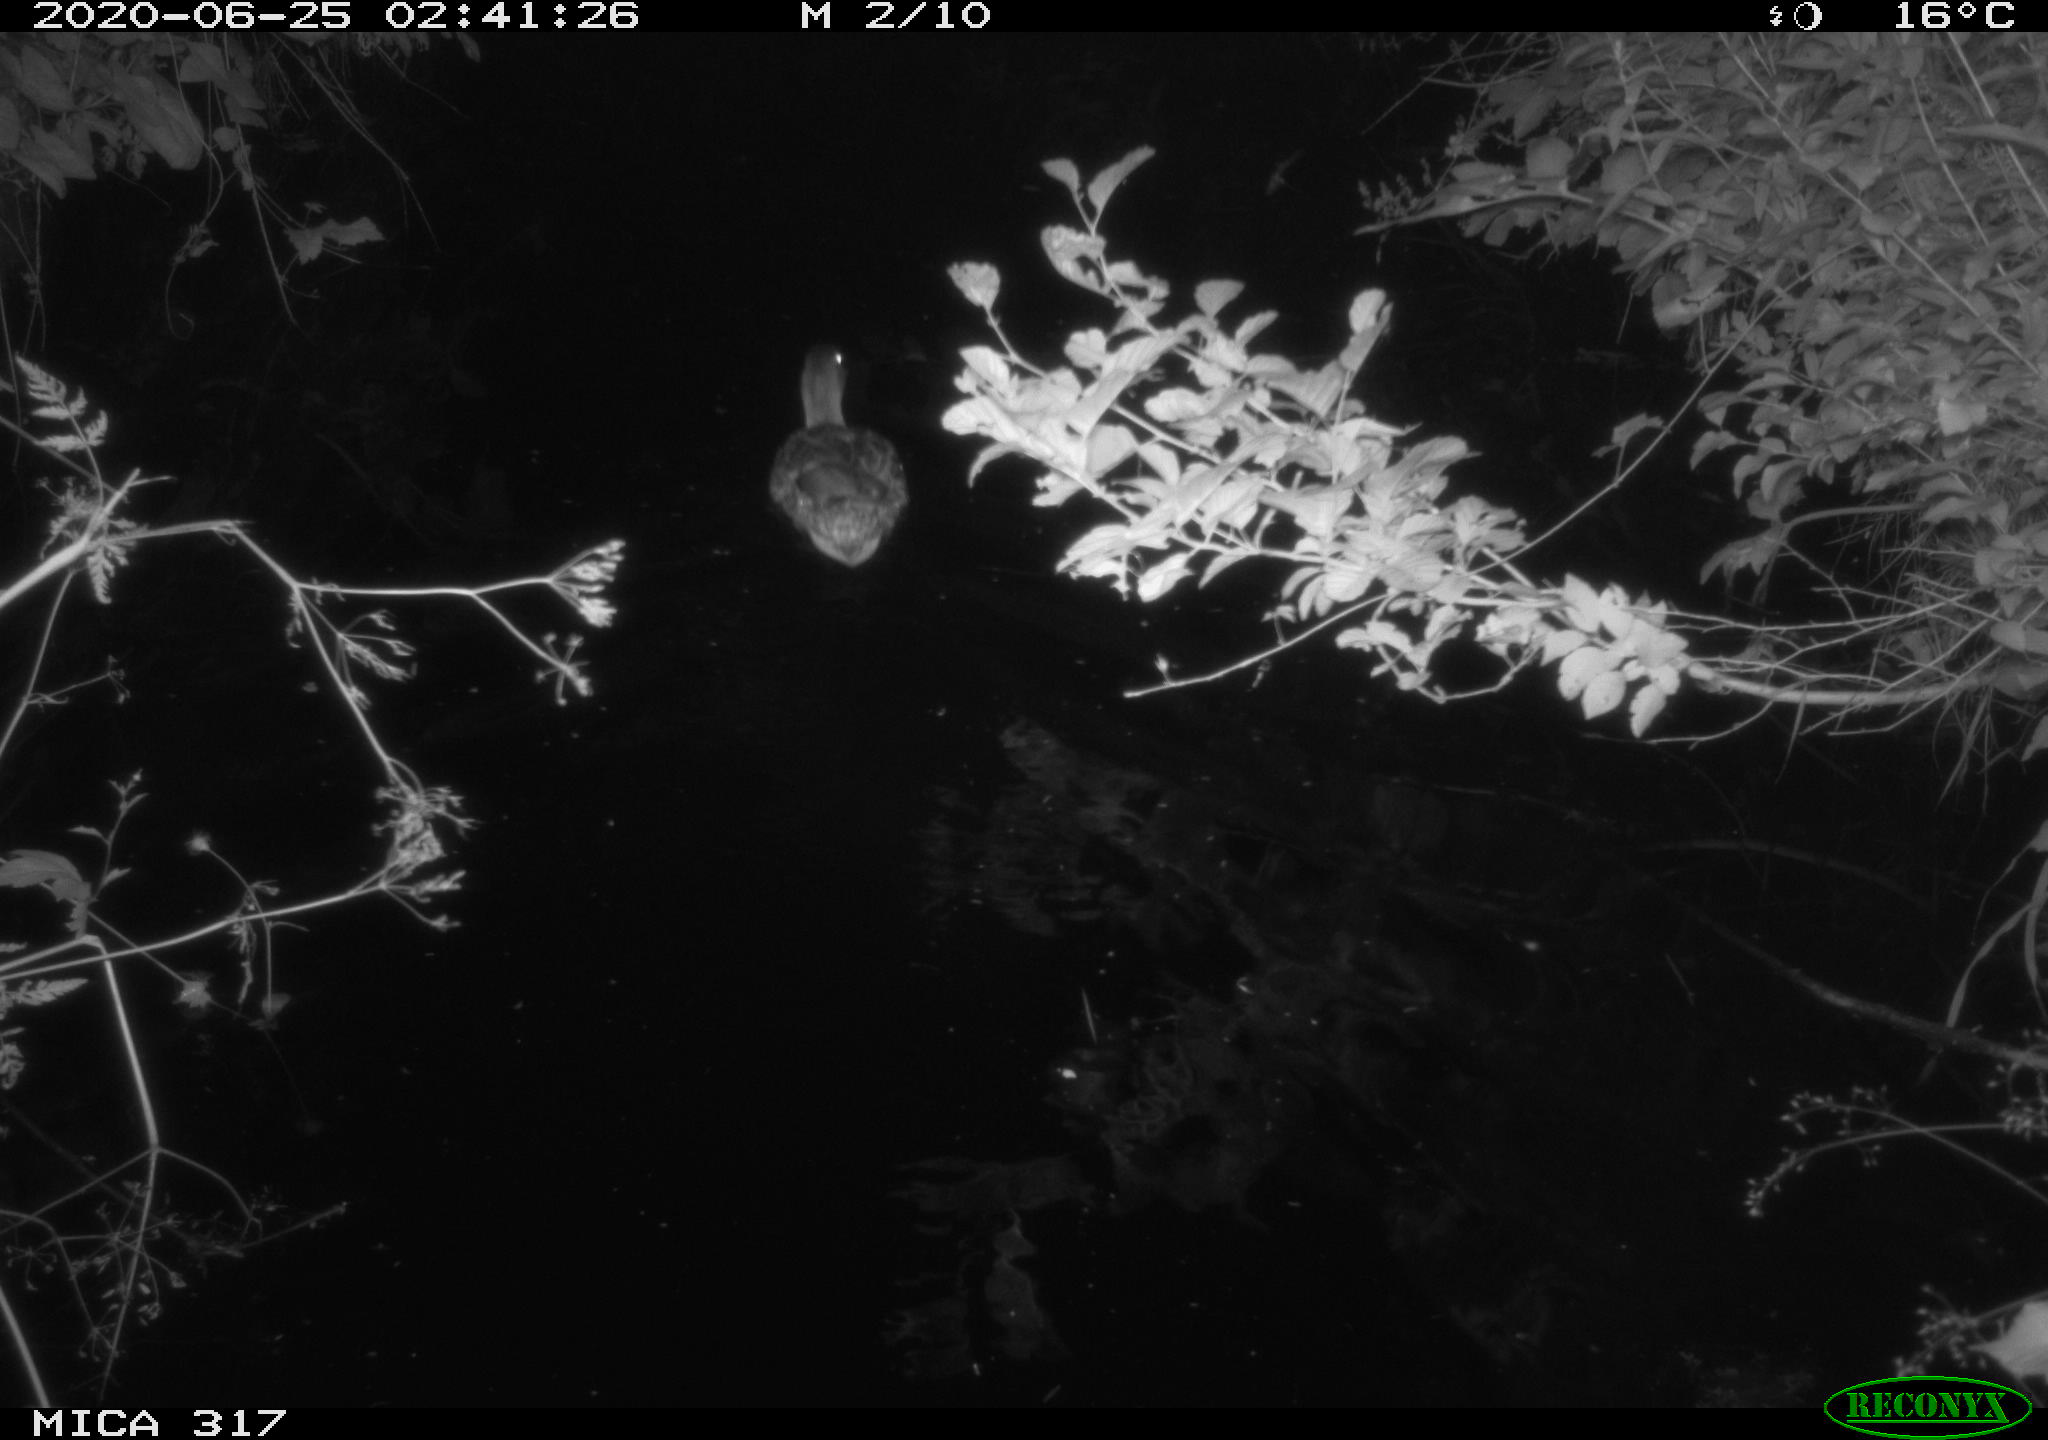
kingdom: Animalia
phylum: Chordata
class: Aves
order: Anseriformes
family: Anatidae
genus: Anas
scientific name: Anas platyrhynchos
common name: Mallard
